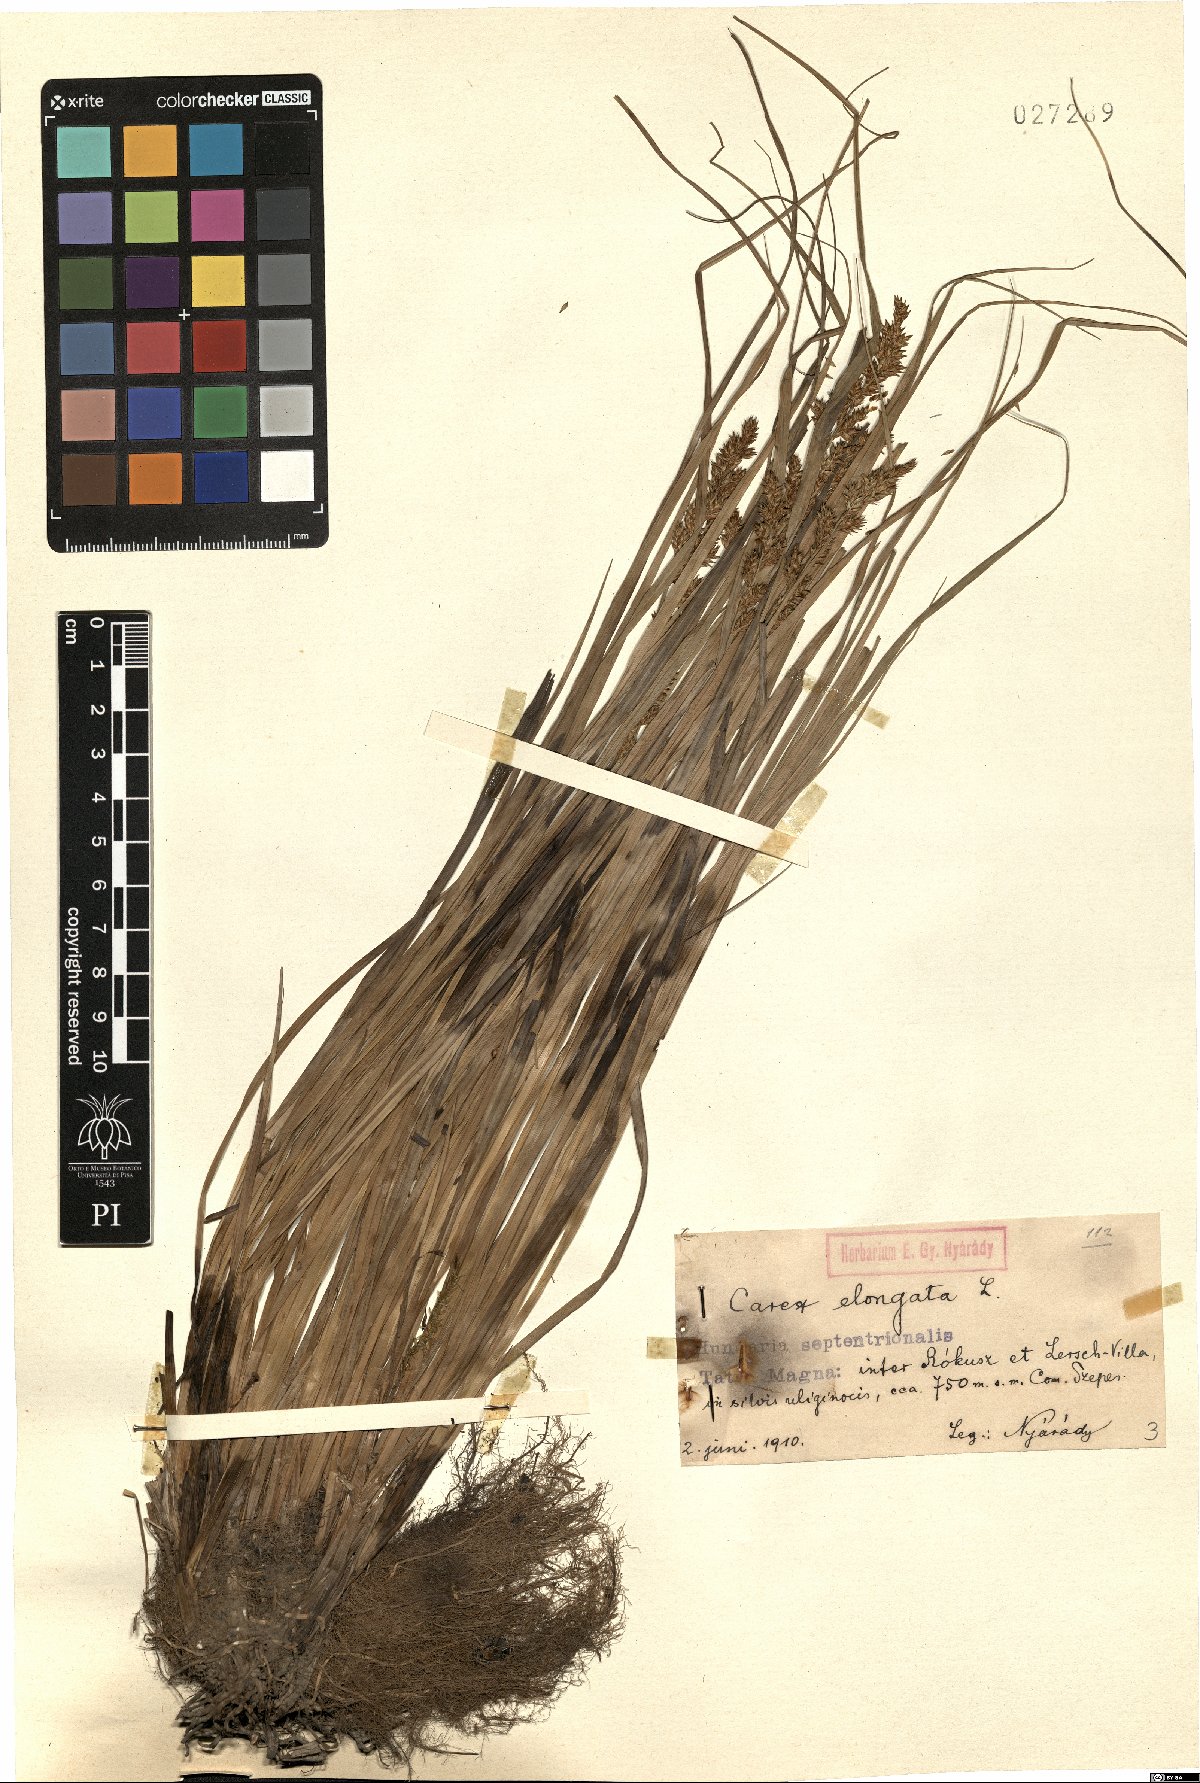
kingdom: Plantae
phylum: Tracheophyta
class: Liliopsida
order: Poales
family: Cyperaceae
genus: Carex
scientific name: Carex elongata
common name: Elongated sedge
